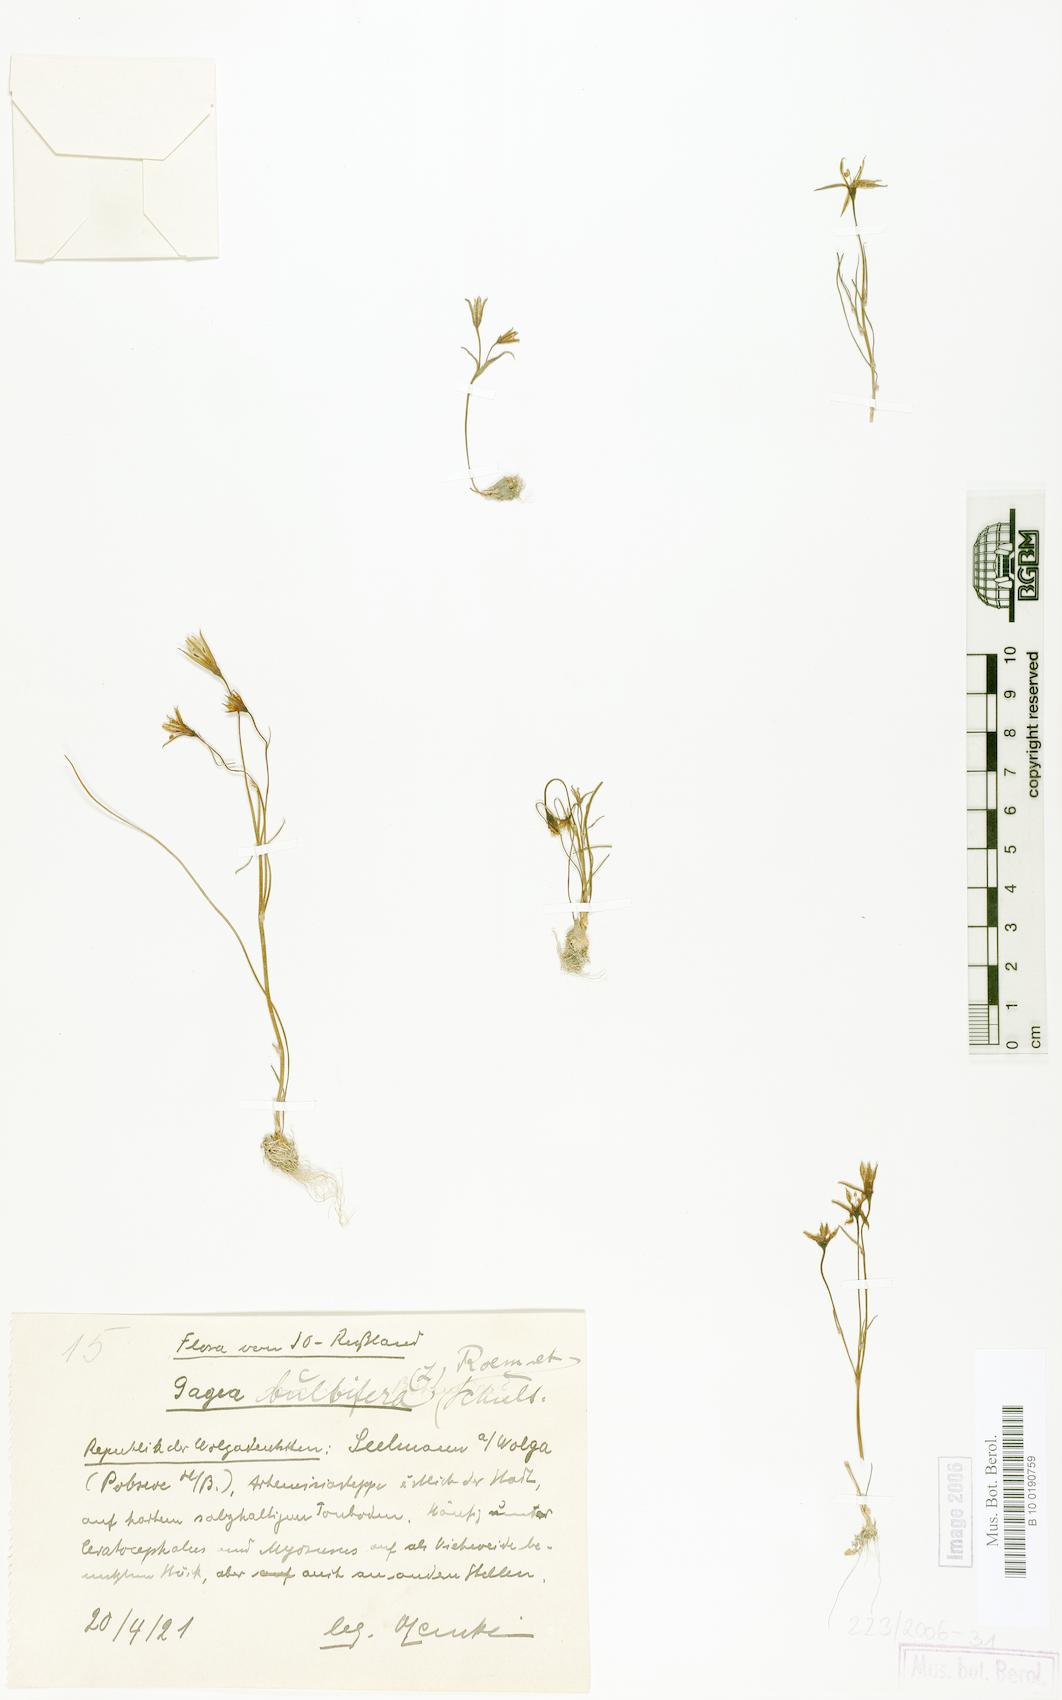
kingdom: Plantae
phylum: Tracheophyta
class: Liliopsida
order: Liliales
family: Liliaceae
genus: Gagea
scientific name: Gagea bulbifera
